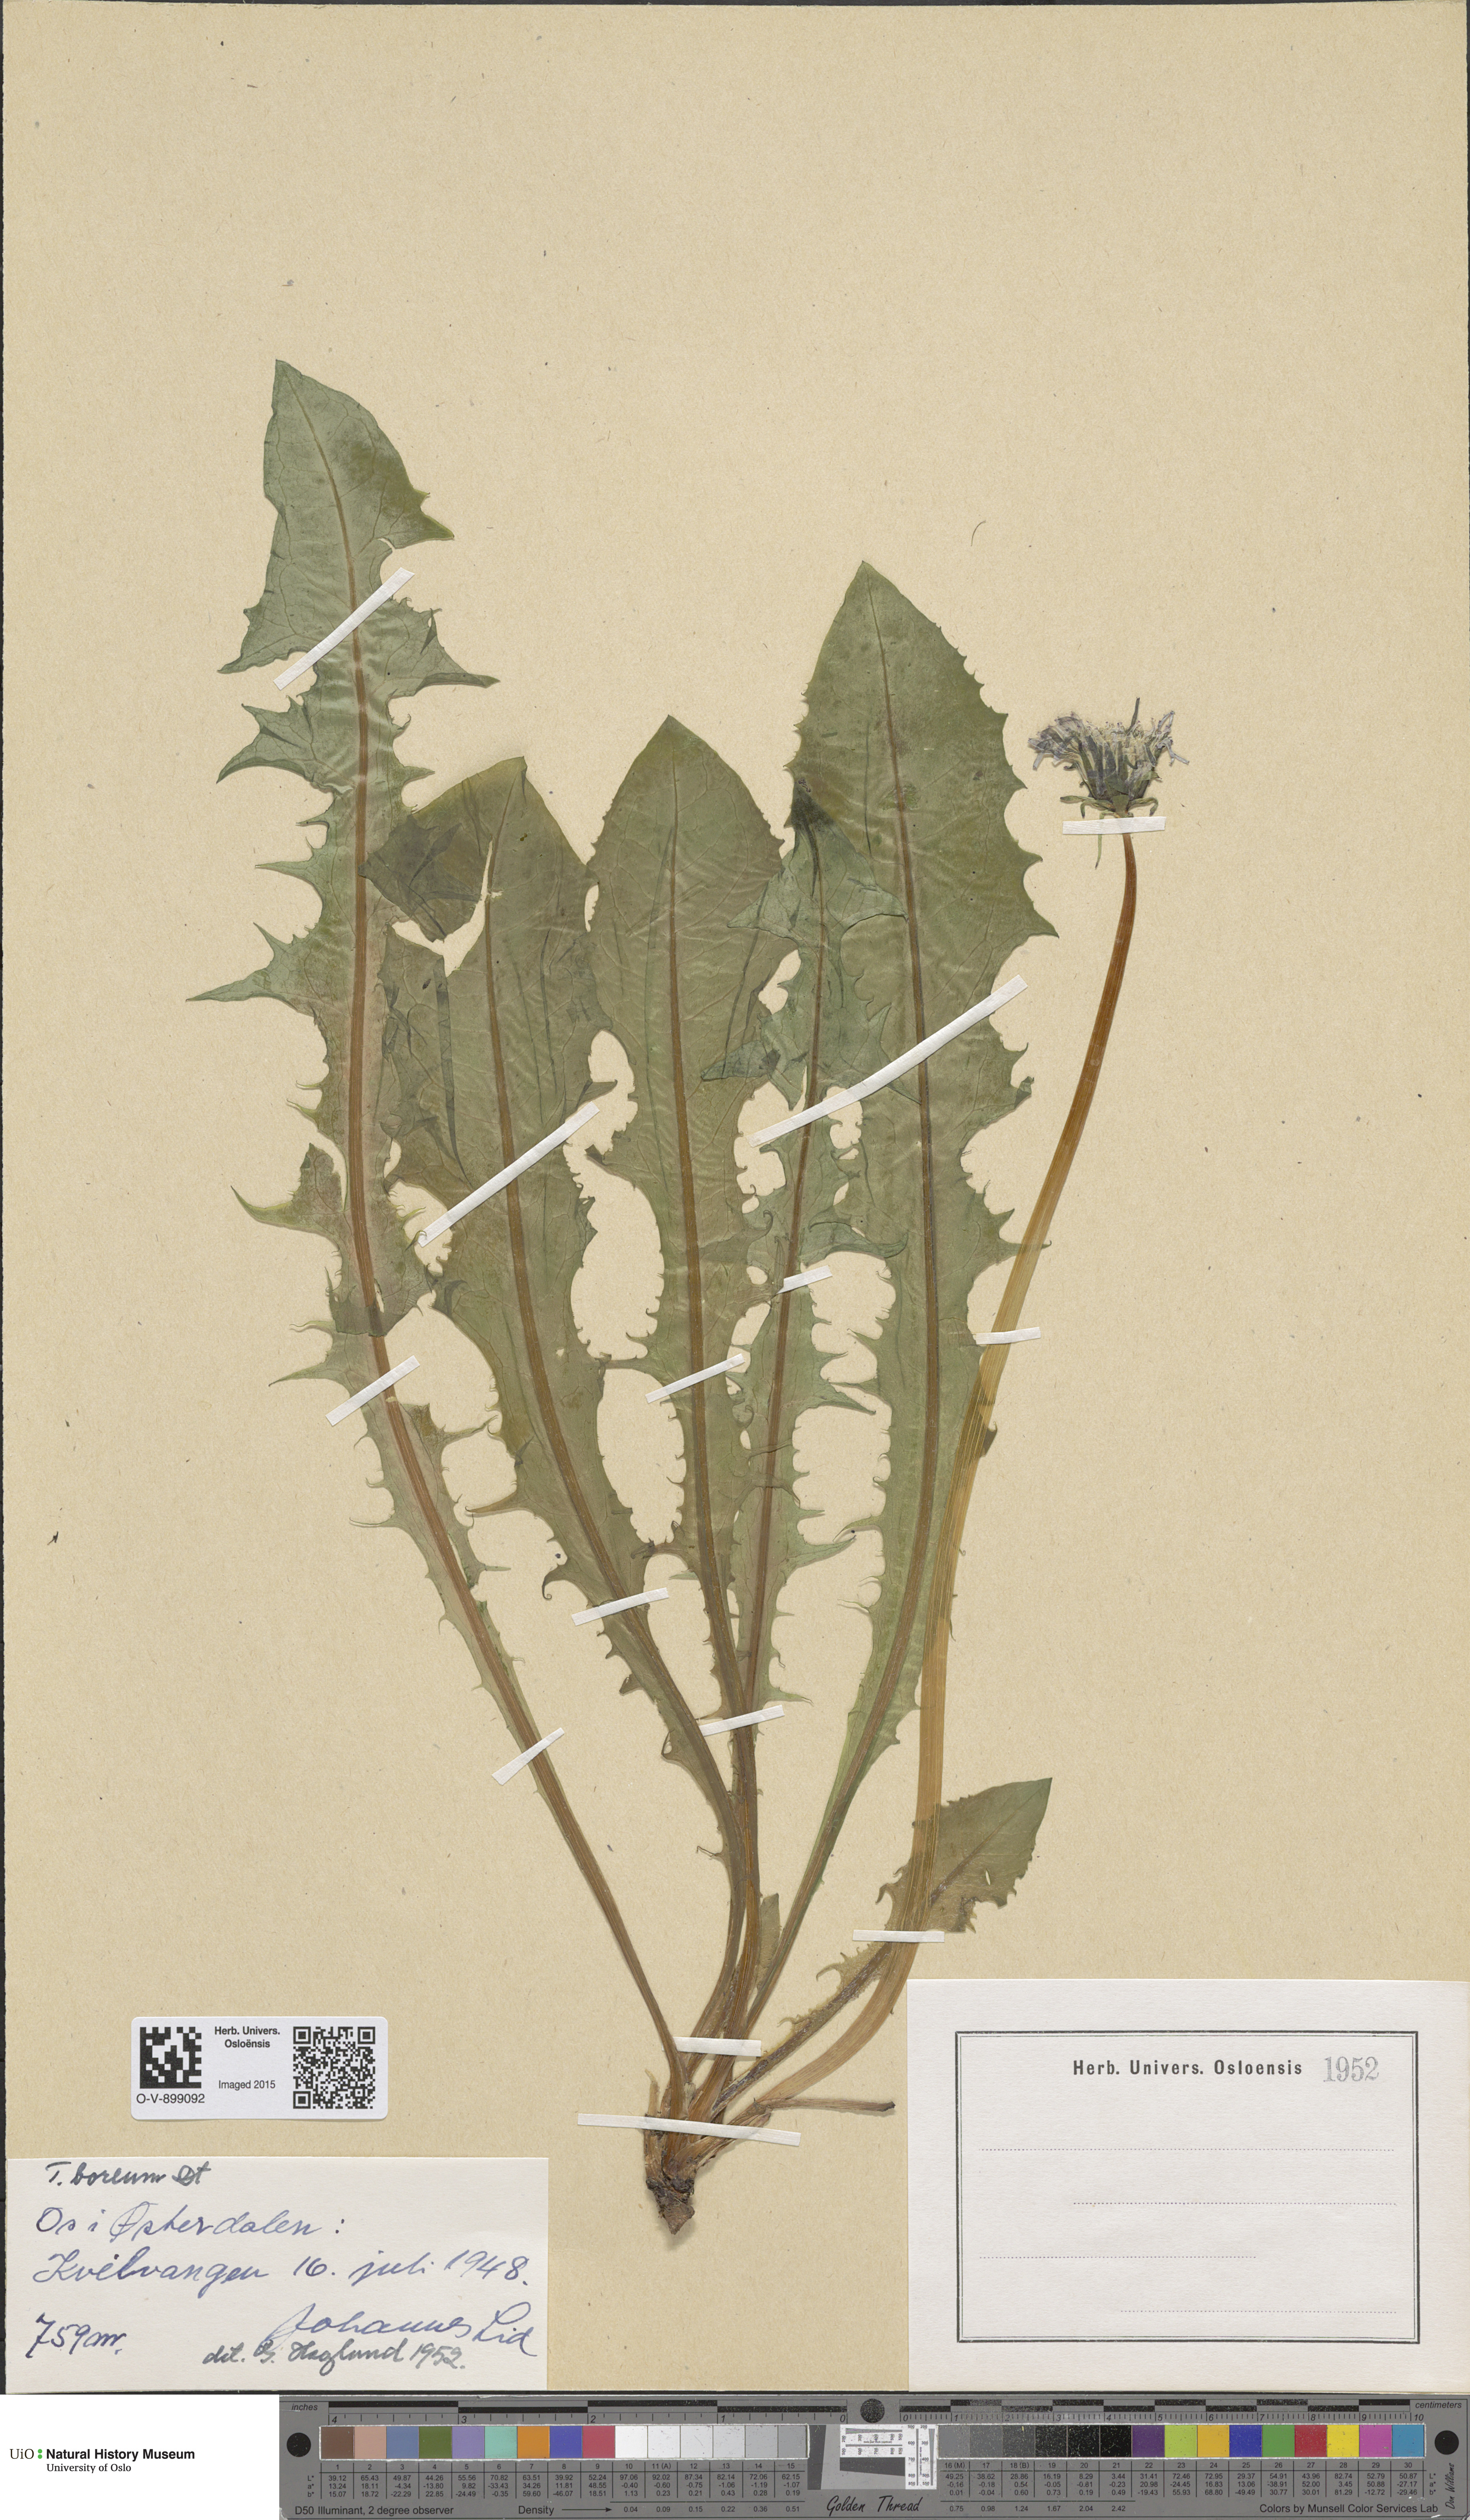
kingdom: Plantae
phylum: Tracheophyta
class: Magnoliopsida
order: Asterales
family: Asteraceae
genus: Taraxacum
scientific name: Taraxacum septentrionale
